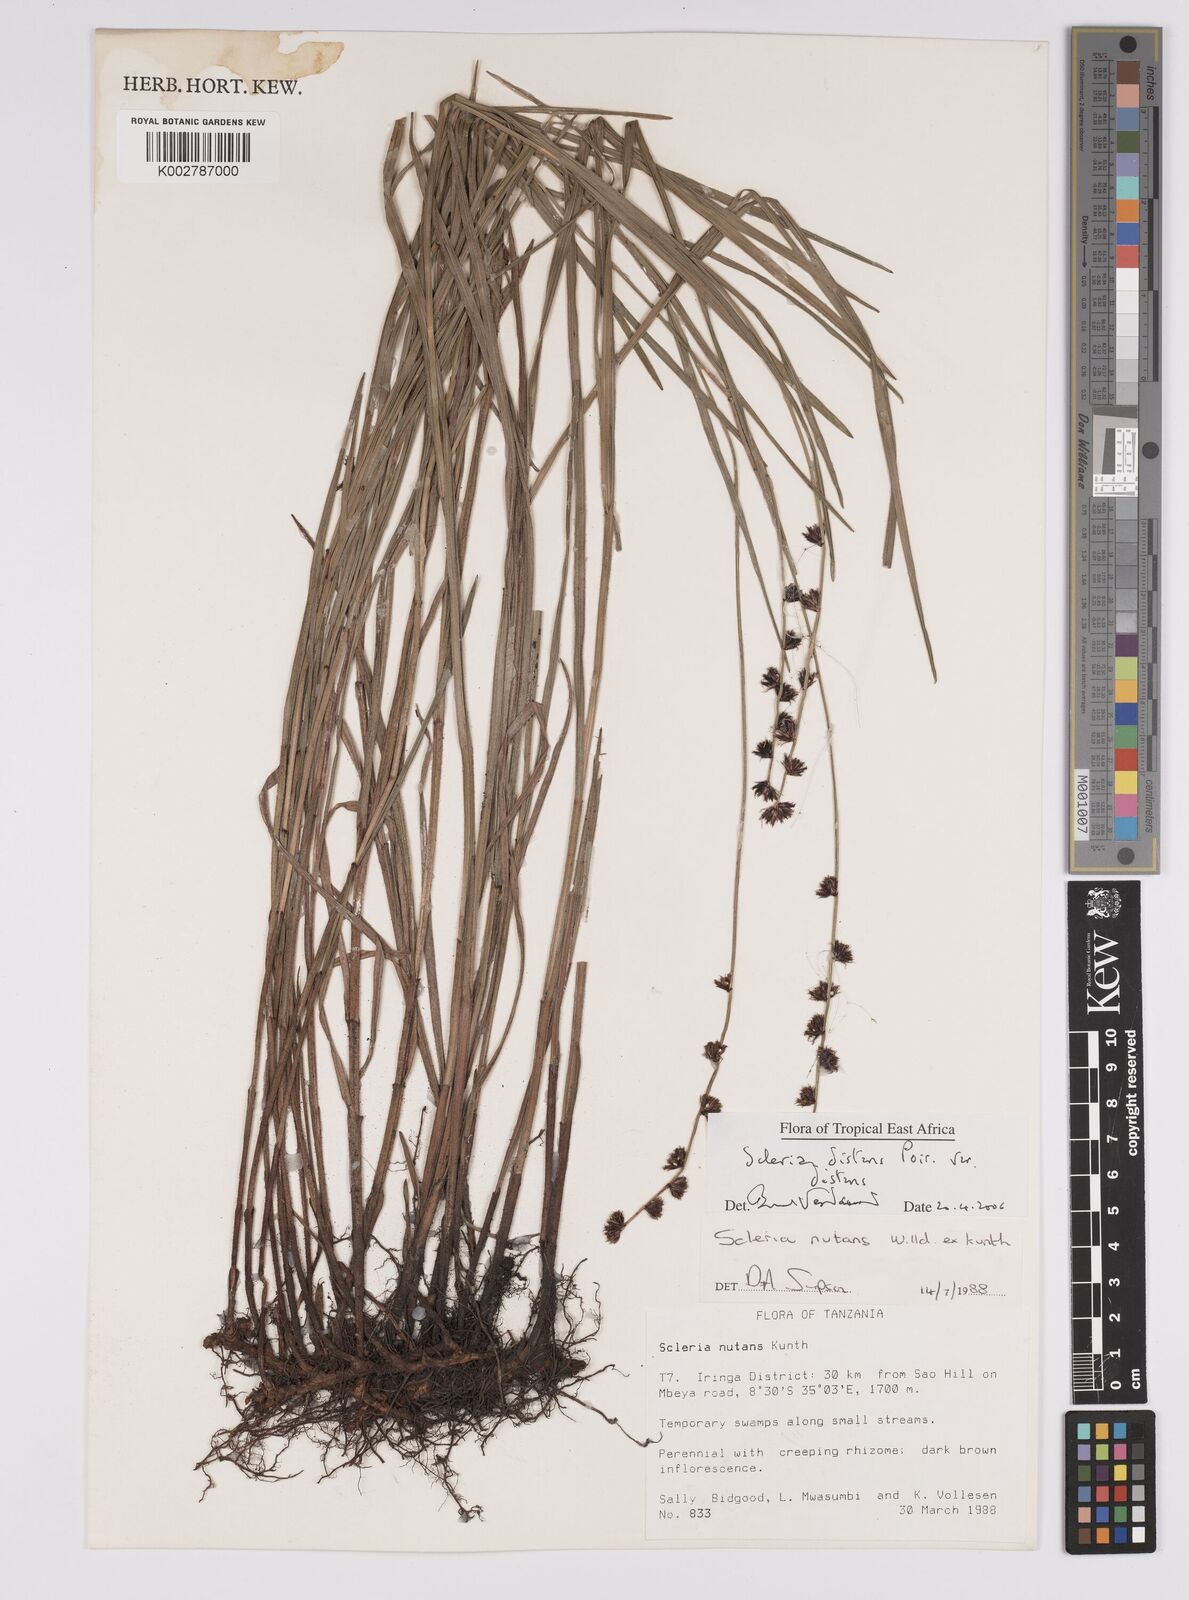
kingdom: Plantae
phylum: Tracheophyta
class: Liliopsida
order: Poales
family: Cyperaceae
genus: Scleria
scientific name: Scleria distans
